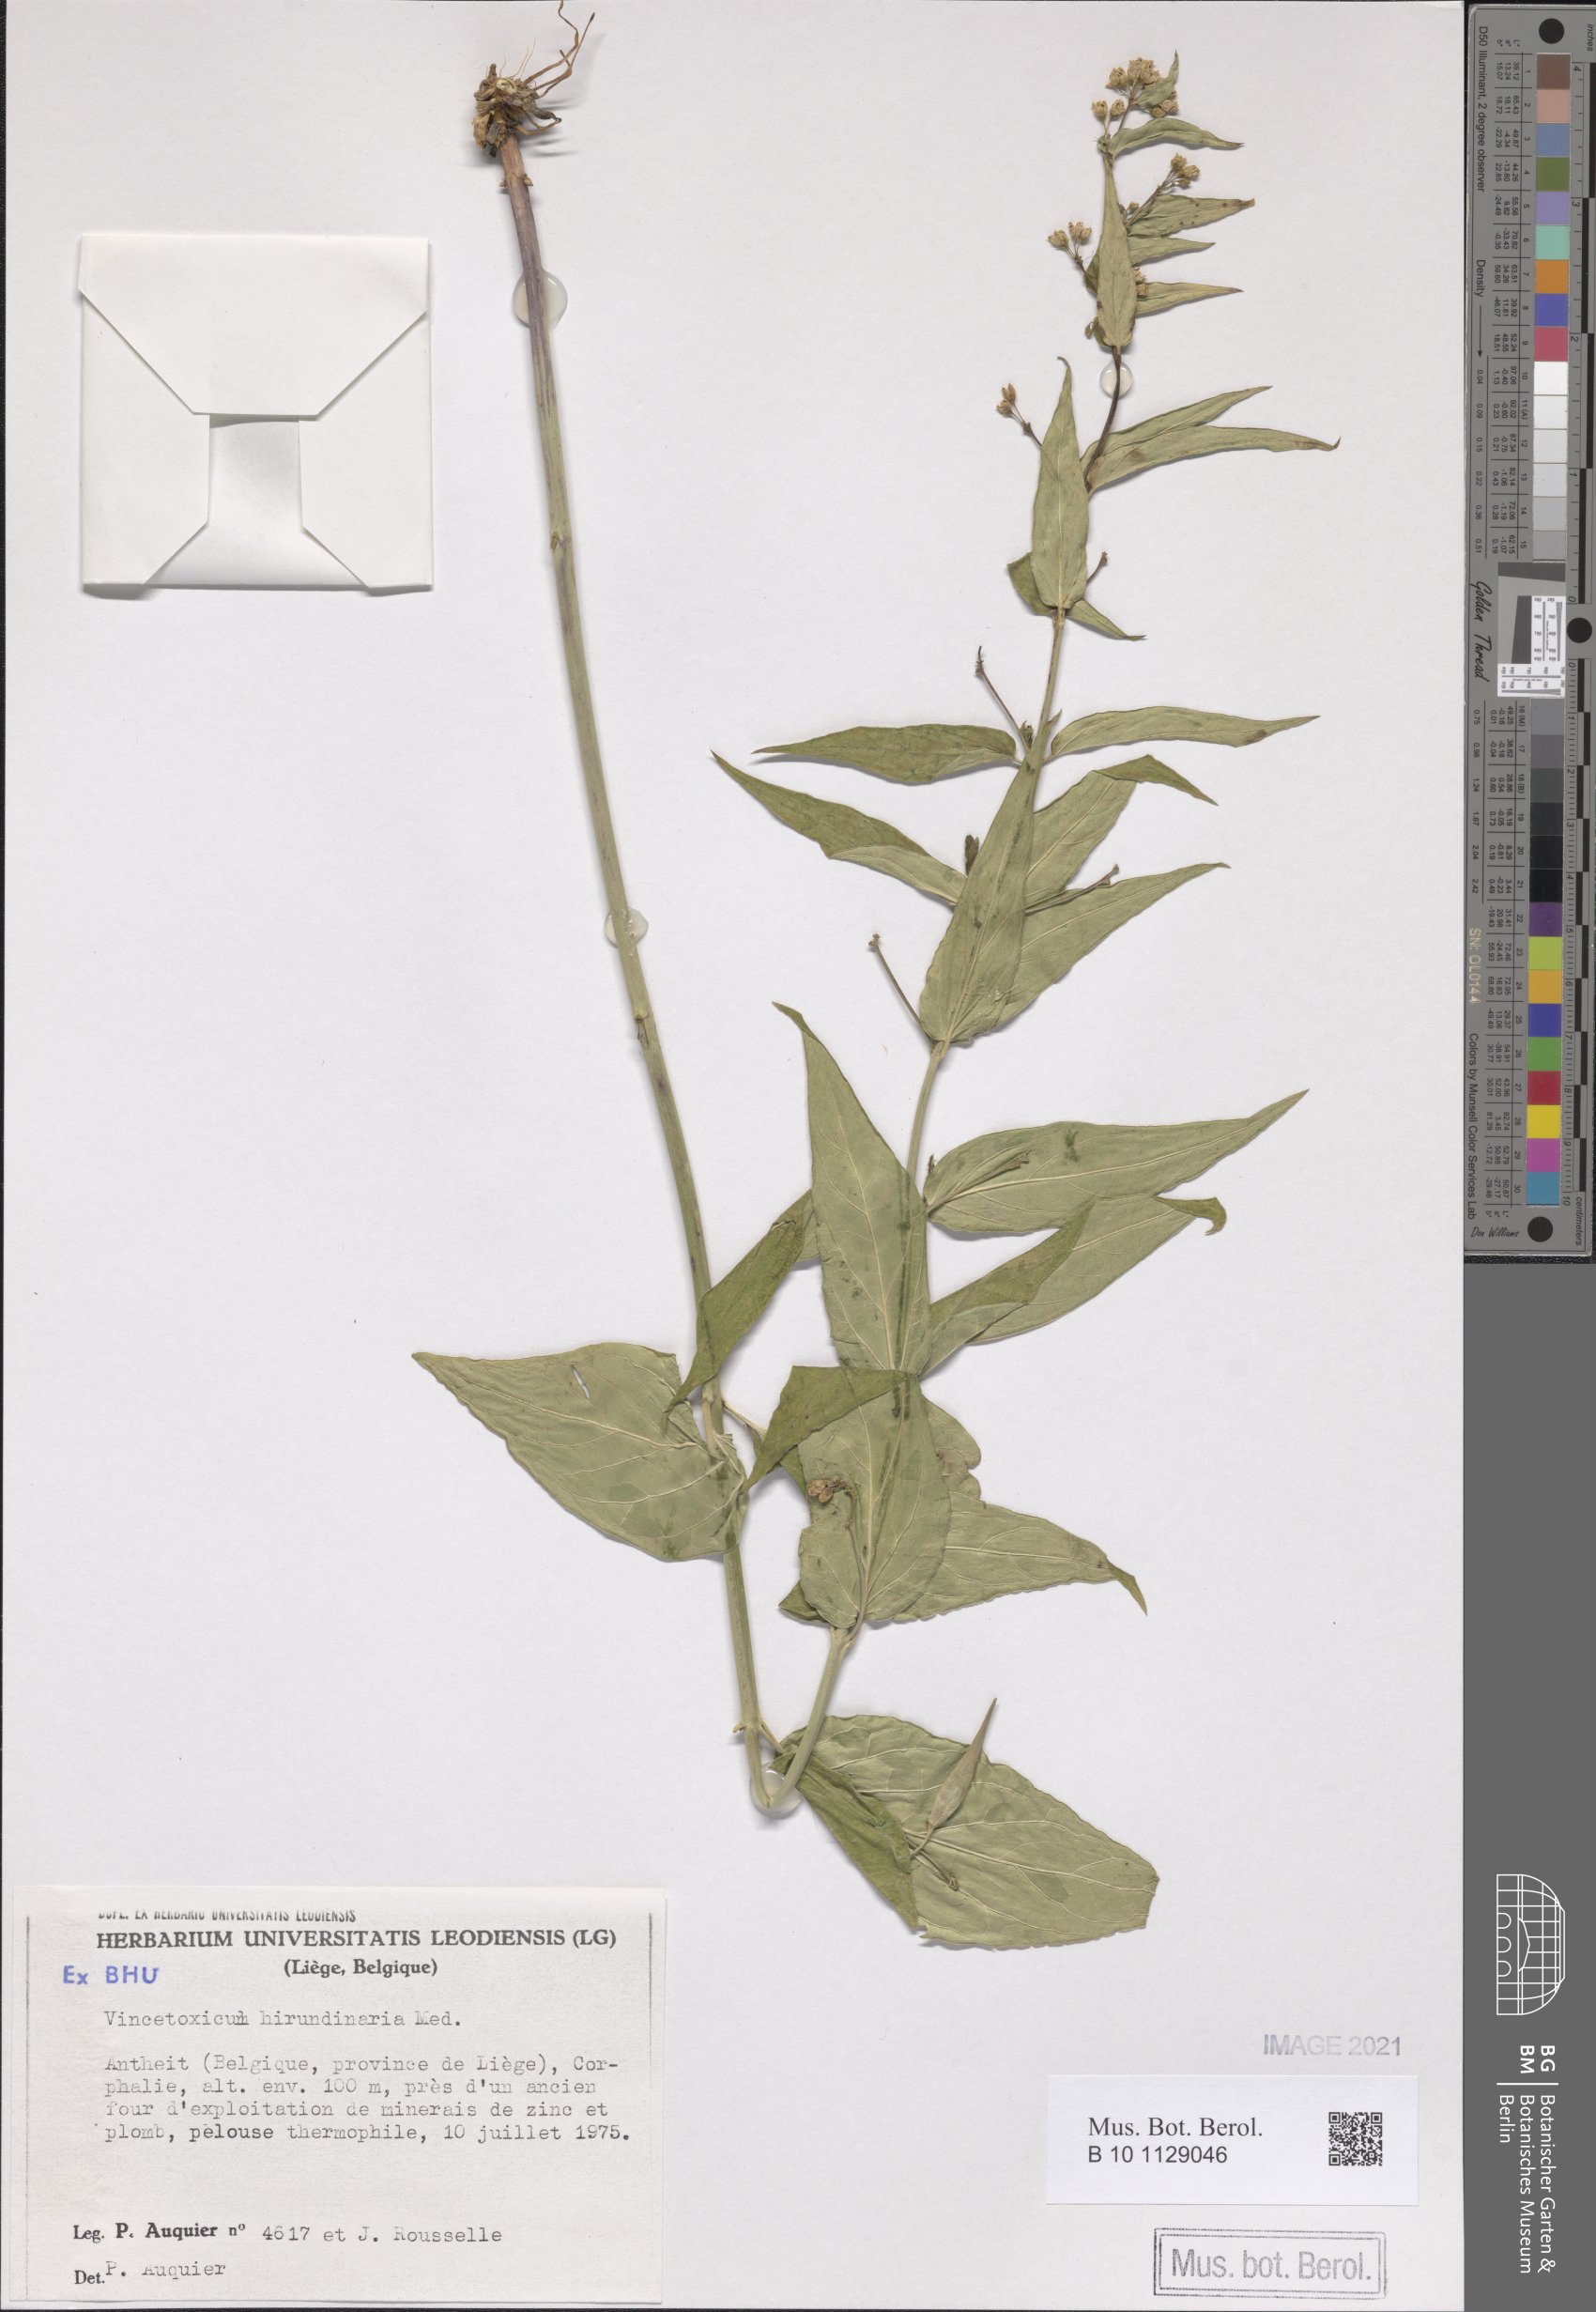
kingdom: Plantae
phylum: Tracheophyta
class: Magnoliopsida
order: Gentianales
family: Apocynaceae
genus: Vincetoxicum
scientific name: Vincetoxicum hirundinaria
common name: White swallowwort
